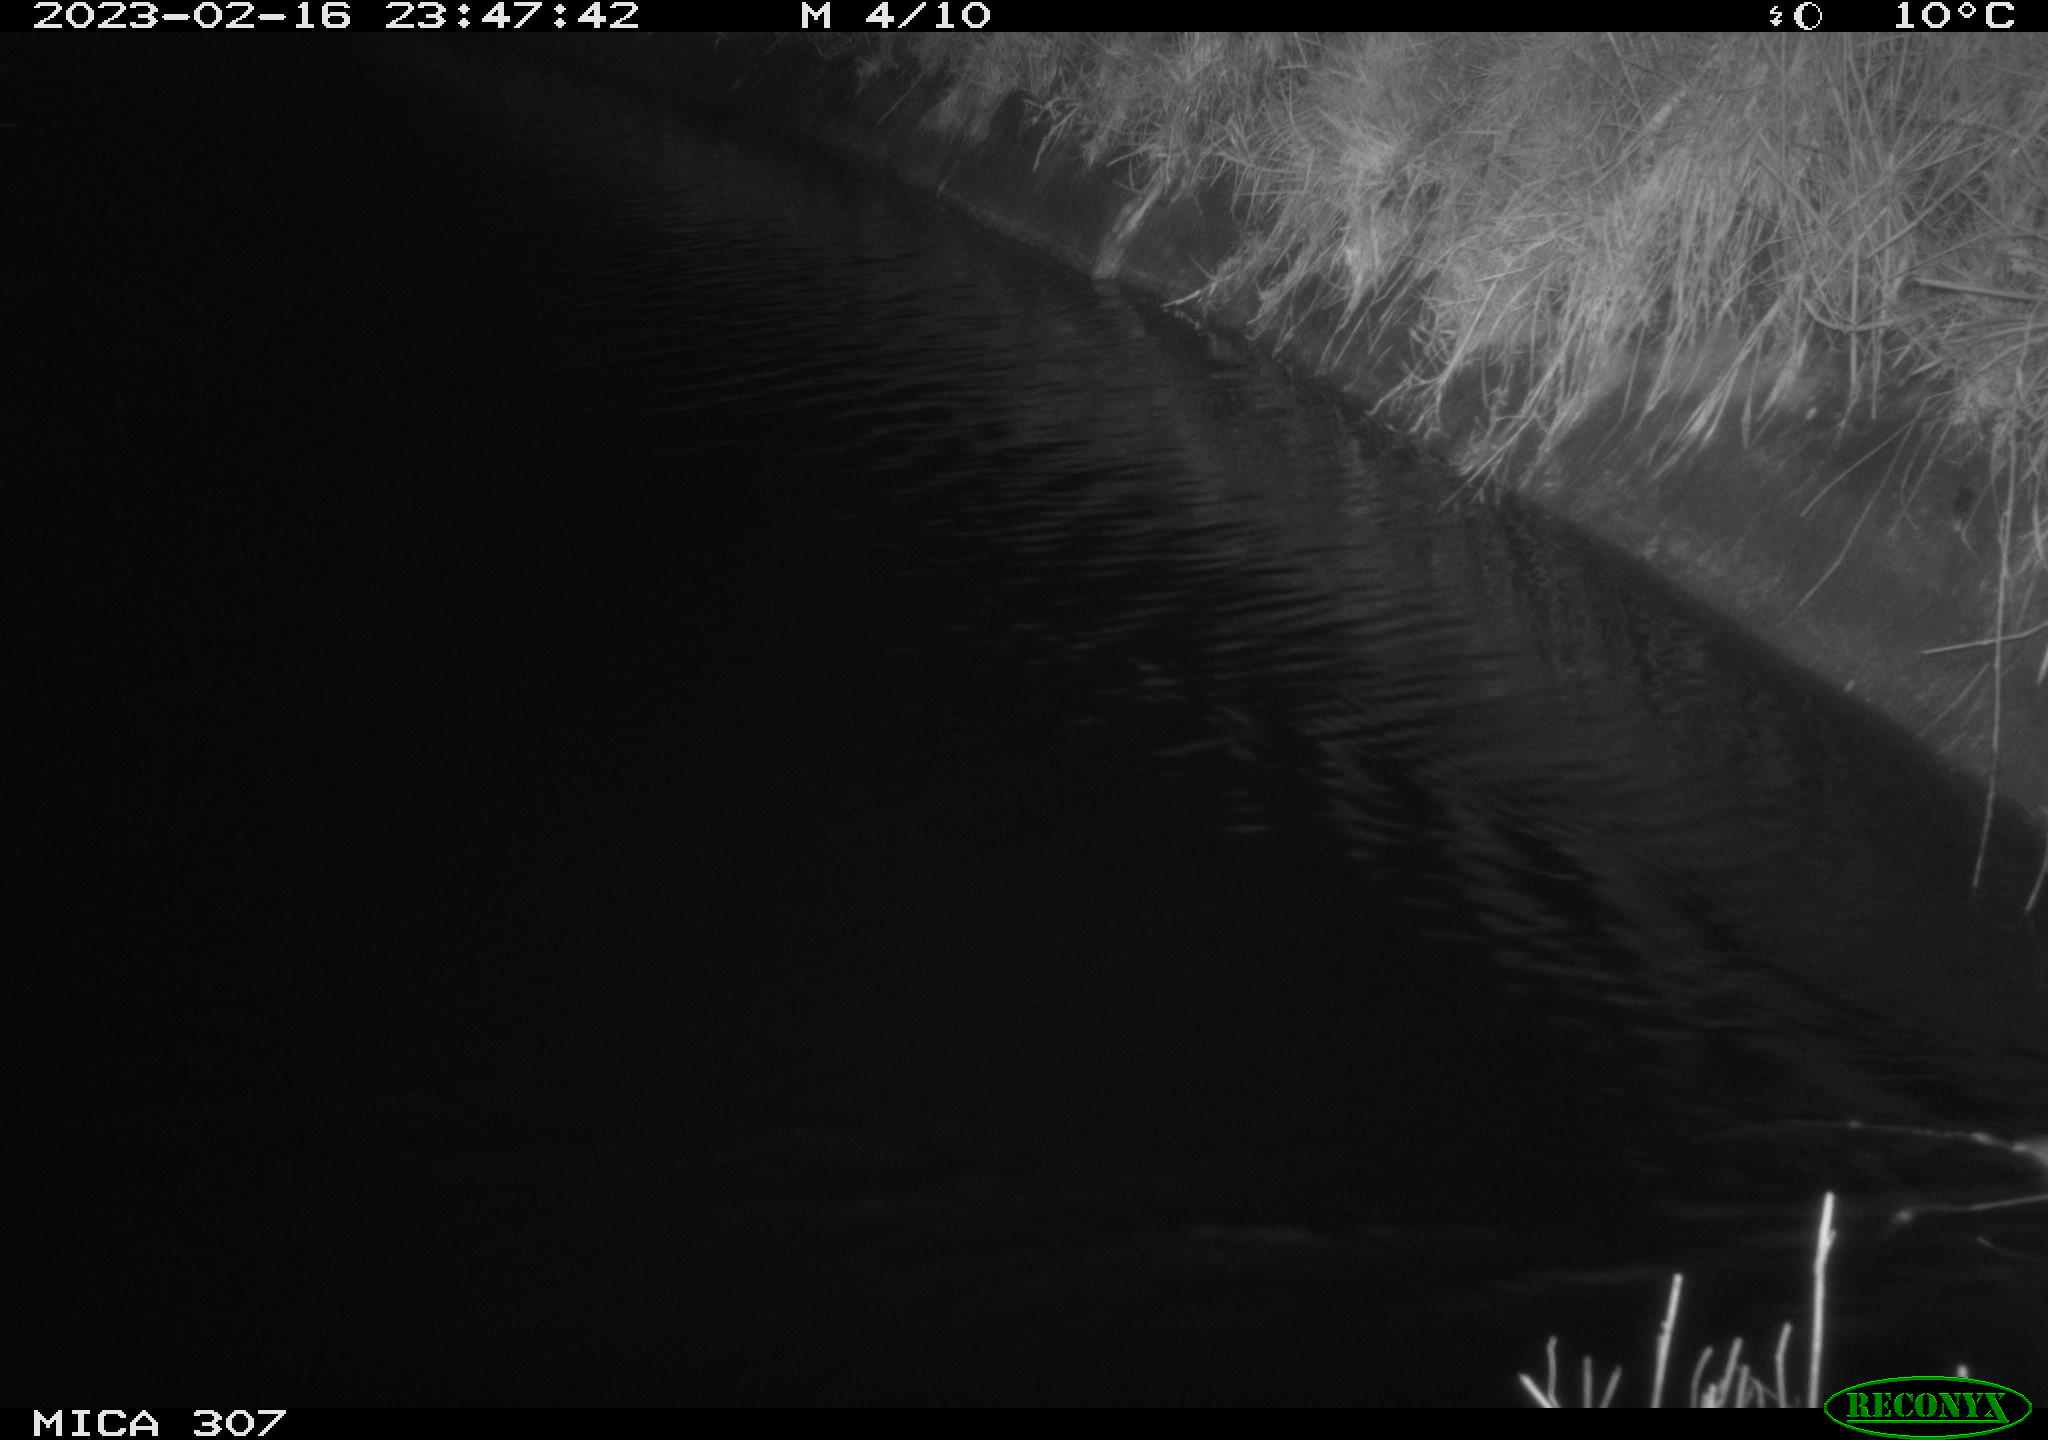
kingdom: Animalia
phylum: Chordata
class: Mammalia
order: Rodentia
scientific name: Rodentia
